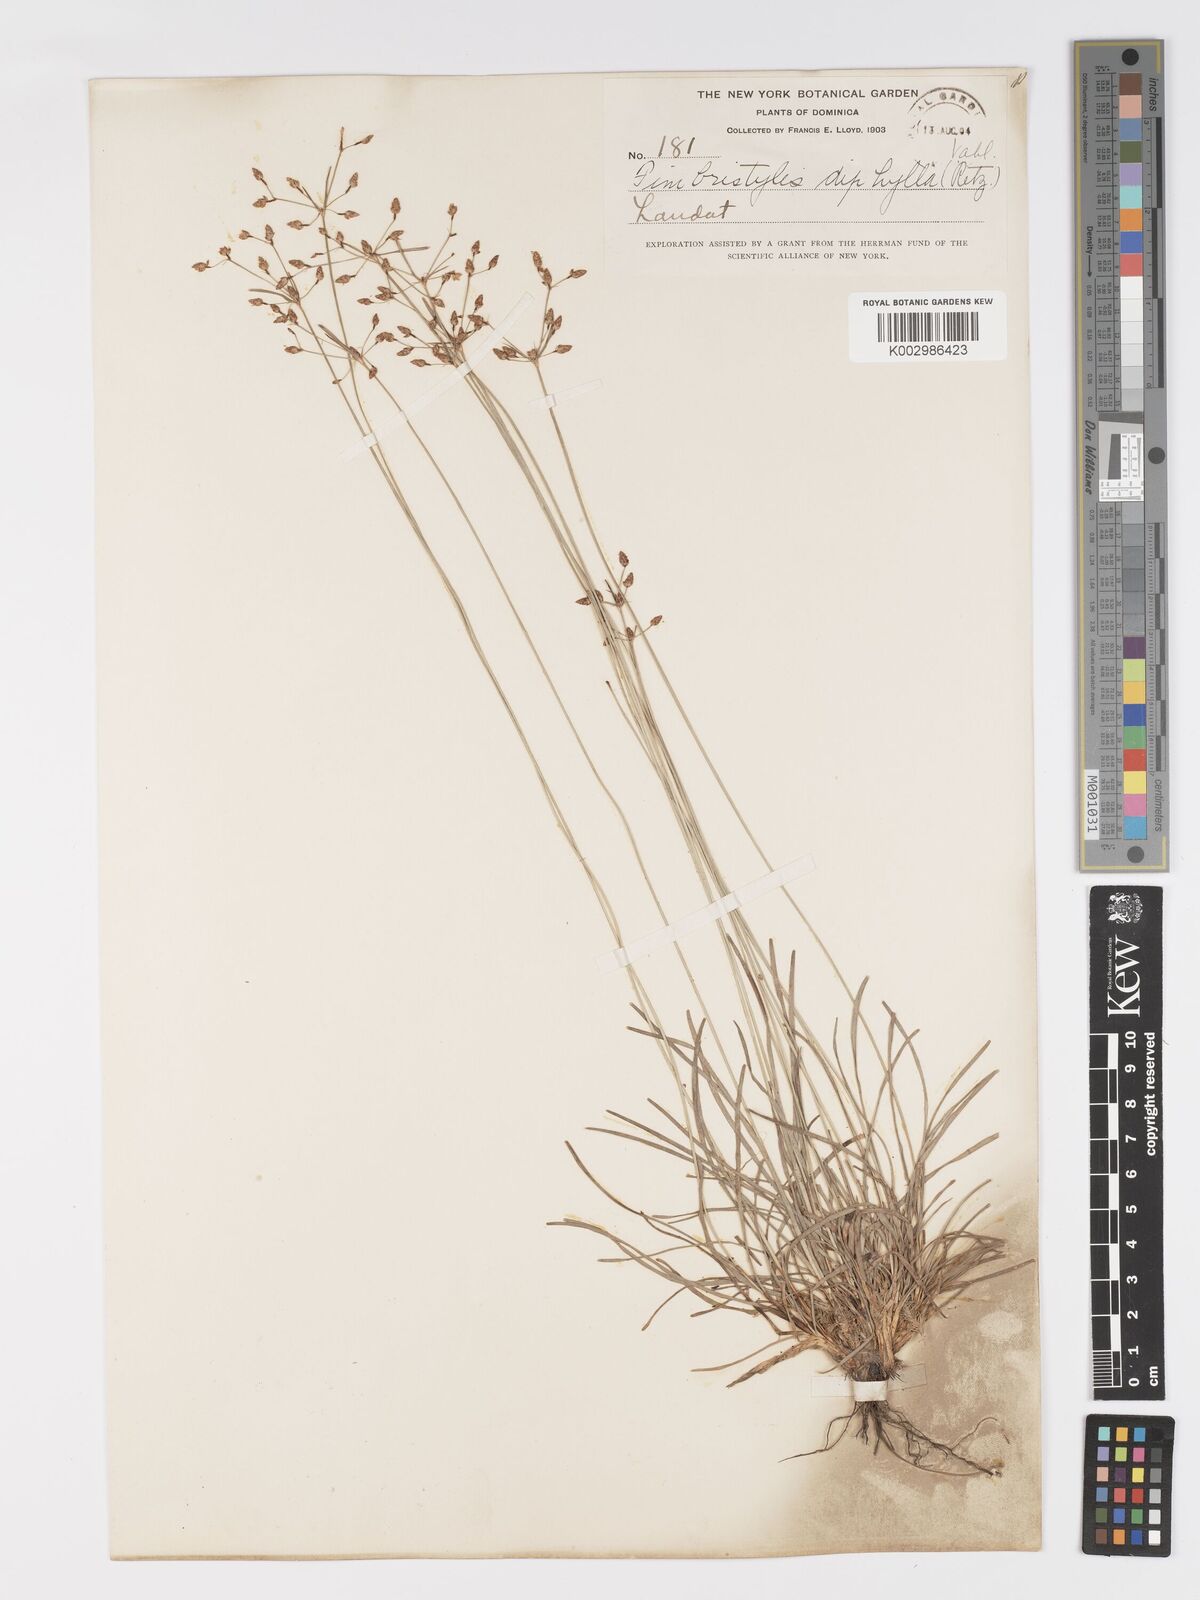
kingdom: Plantae
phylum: Tracheophyta
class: Liliopsida
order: Poales
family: Cyperaceae
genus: Fimbristylis
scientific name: Fimbristylis dichotoma
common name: Forked fimbry
